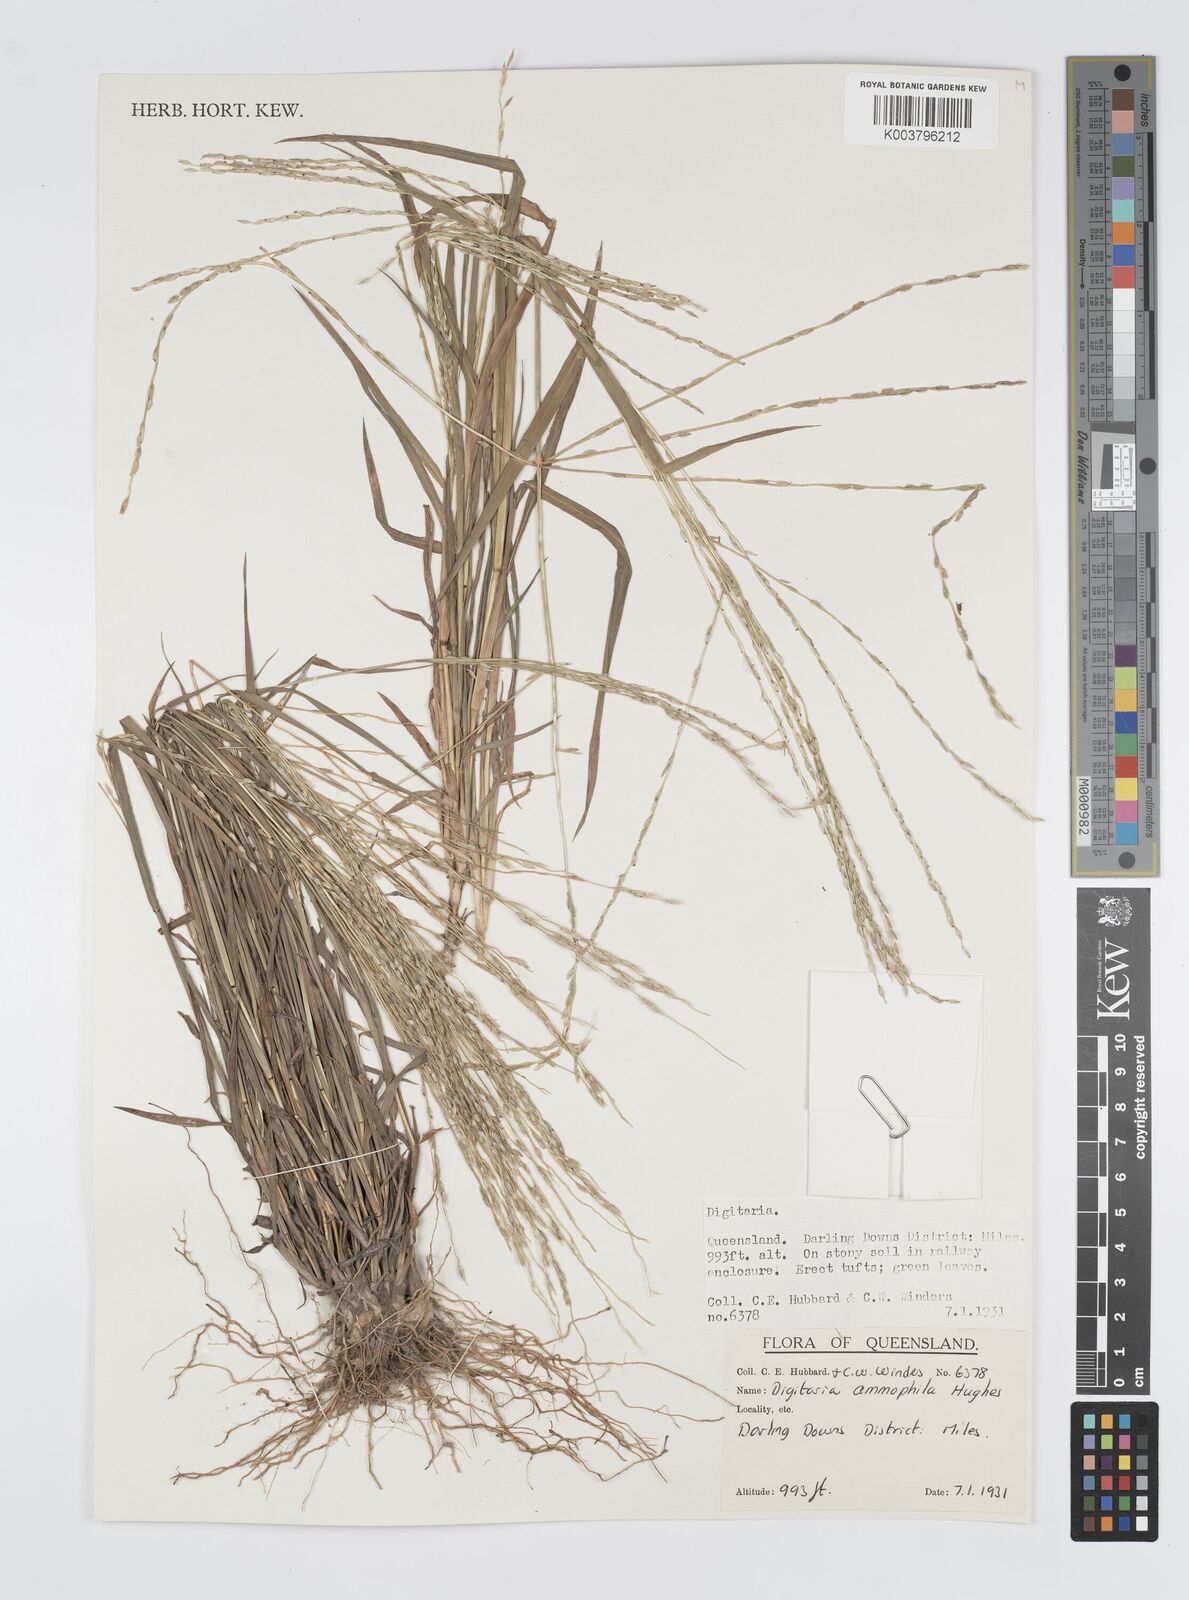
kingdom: Plantae
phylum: Tracheophyta
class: Liliopsida
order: Poales
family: Poaceae
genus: Digitaria
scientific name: Digitaria ammophila
